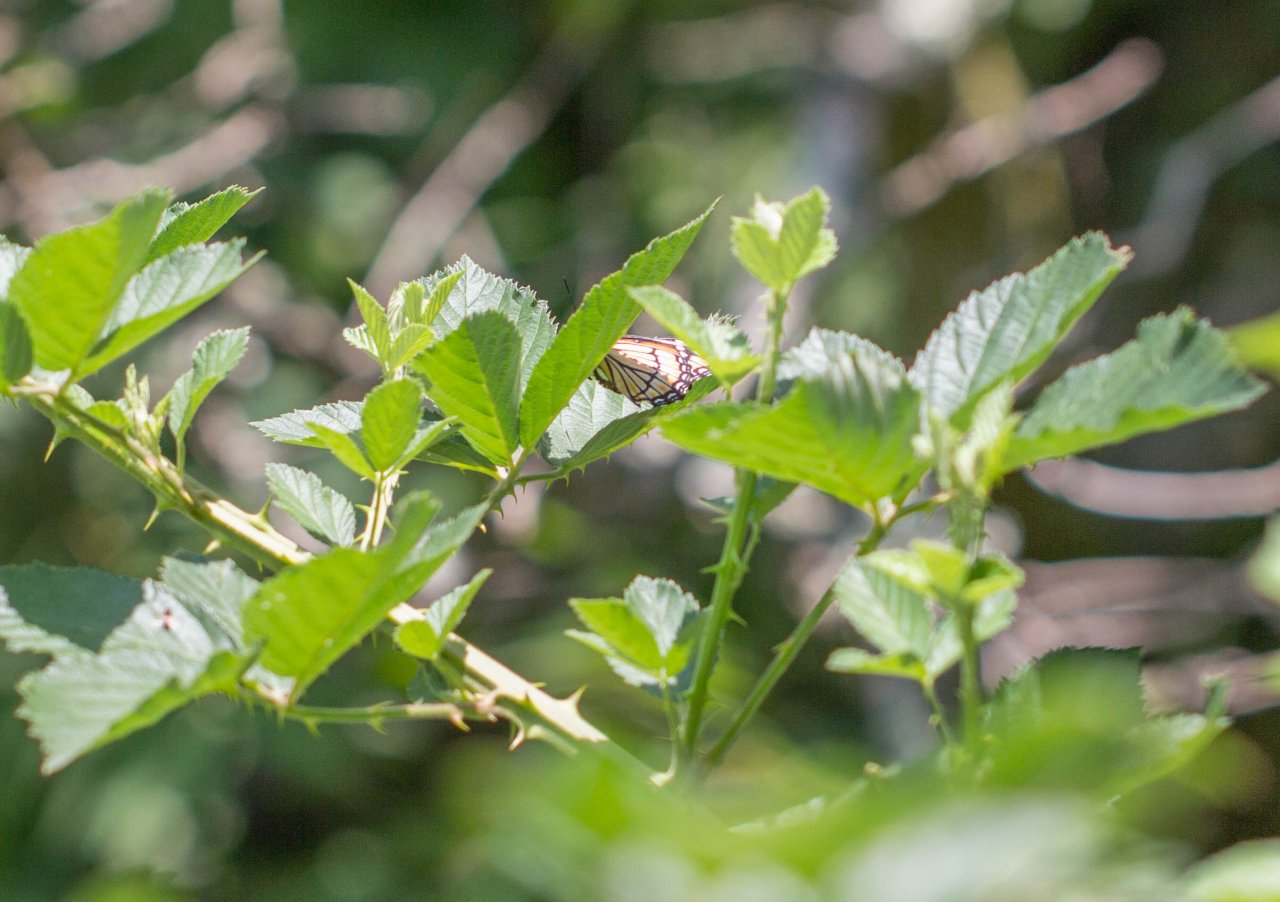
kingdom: Animalia
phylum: Arthropoda
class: Insecta
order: Lepidoptera
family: Nymphalidae
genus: Danaus
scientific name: Danaus plexippus
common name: Monarch
